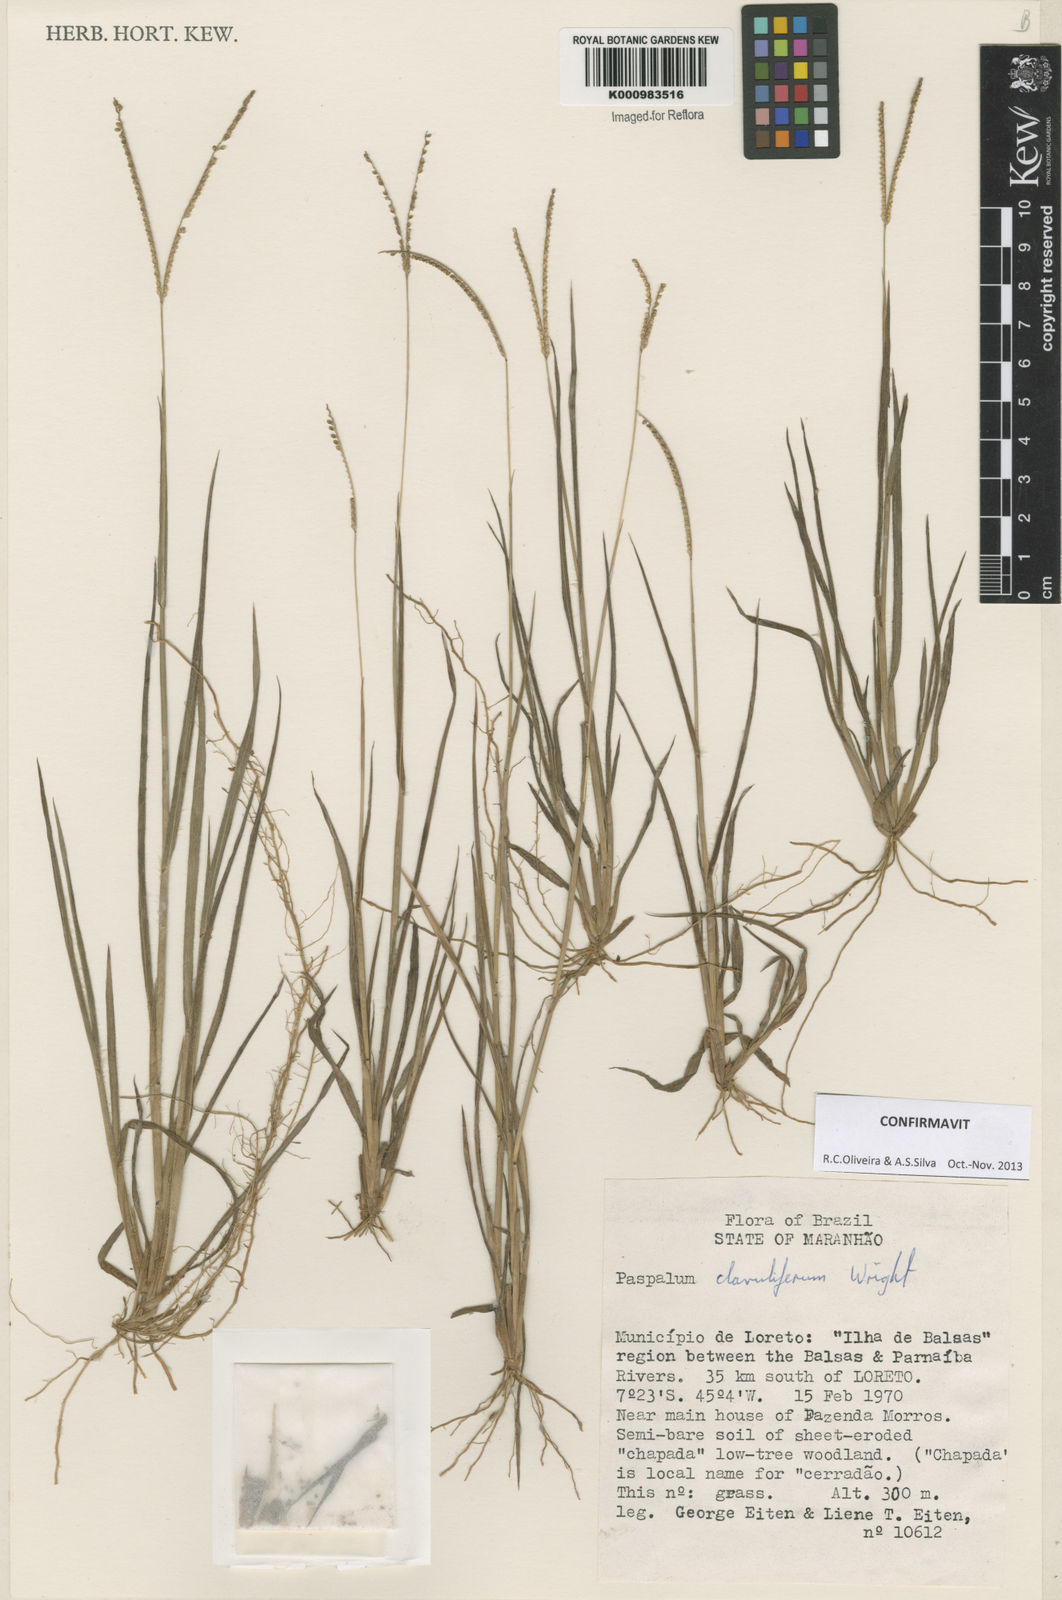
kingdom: Plantae
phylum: Tracheophyta
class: Liliopsida
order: Poales
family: Poaceae
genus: Paspalum
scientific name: Paspalum clavuliferum
